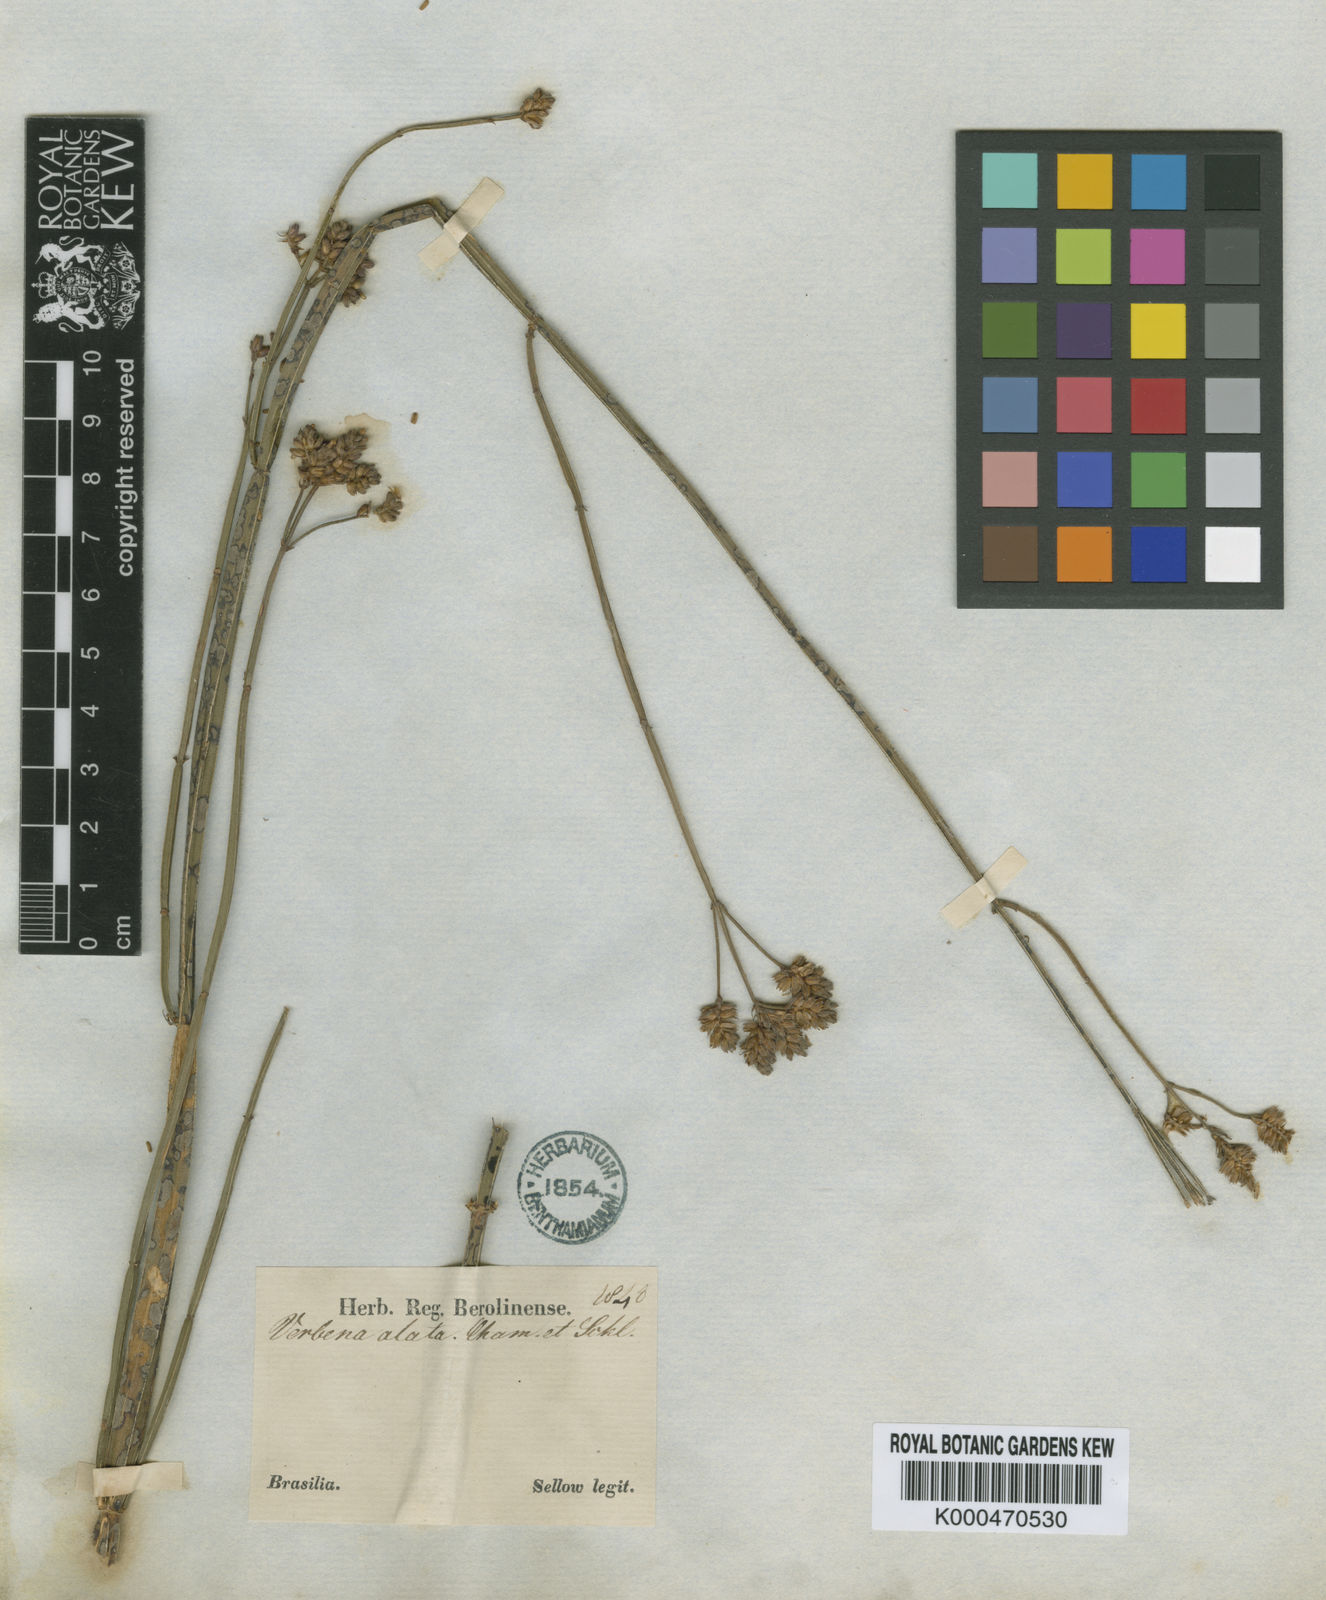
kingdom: Plantae
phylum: Tracheophyta
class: Magnoliopsida
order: Lamiales
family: Verbenaceae
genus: Verbena
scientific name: Verbena alata
